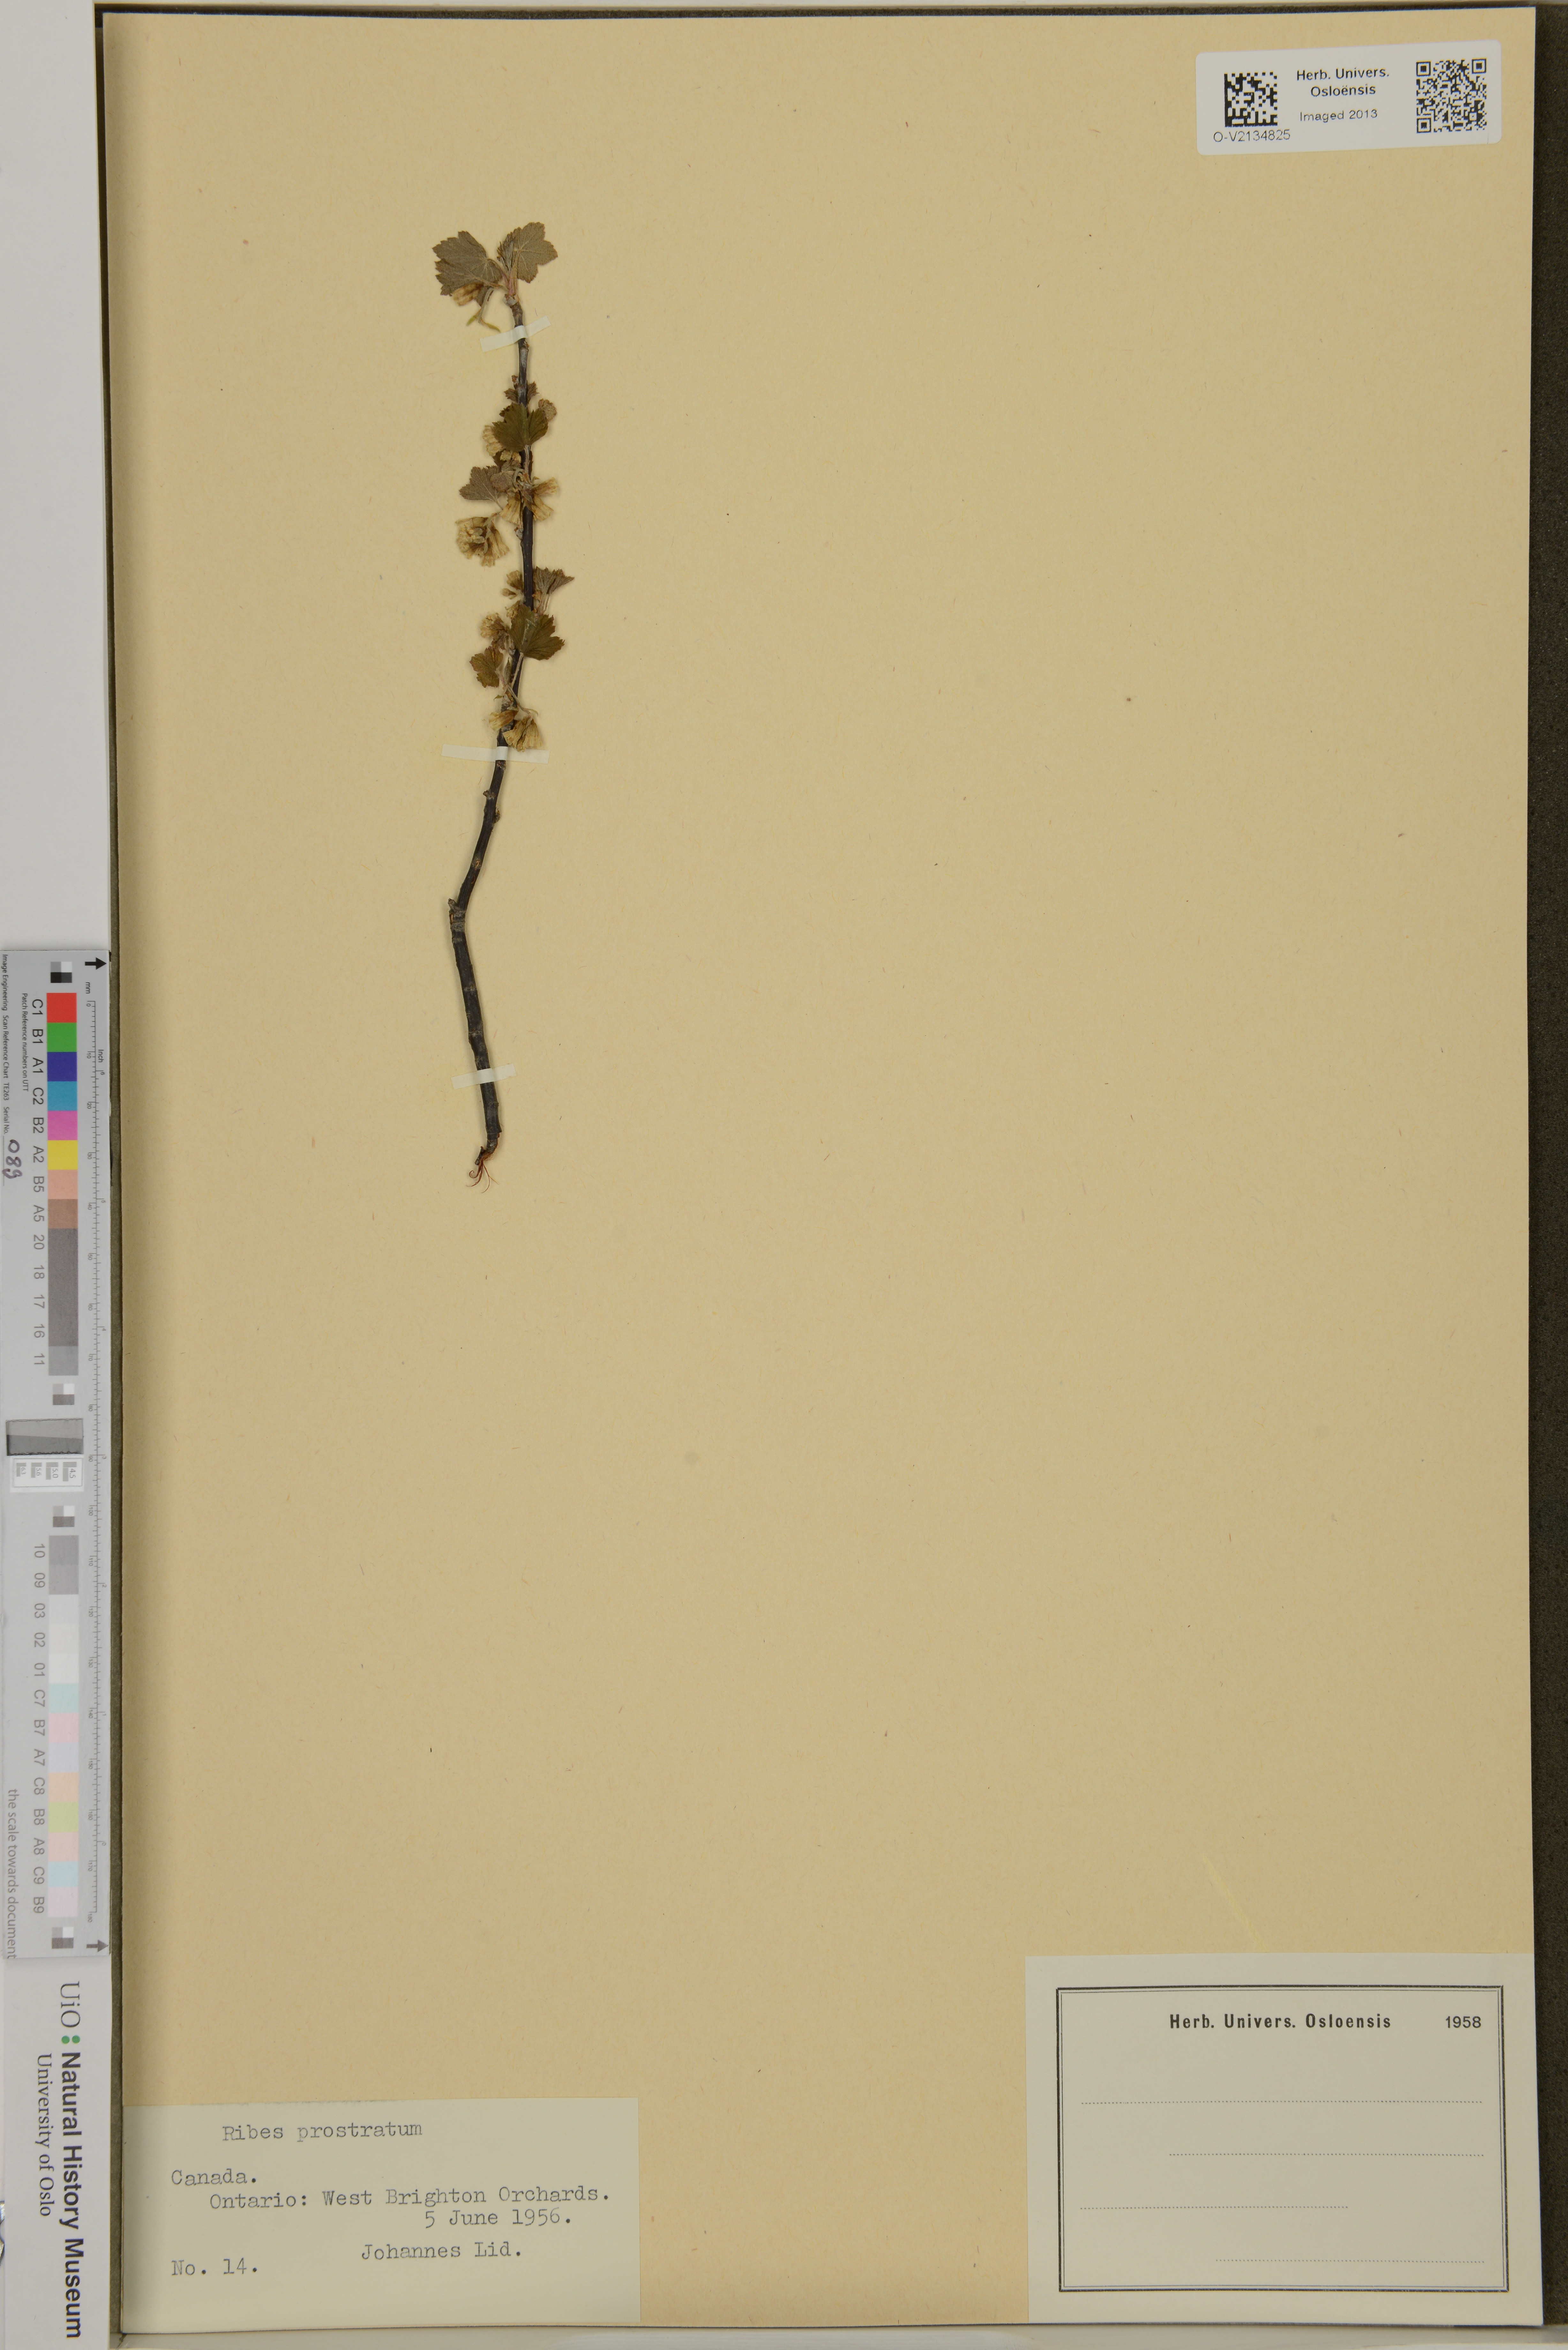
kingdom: Plantae
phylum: Tracheophyta
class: Magnoliopsida
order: Saxifragales
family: Grossulariaceae
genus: Ribes
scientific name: Ribes glandulosum
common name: Skunk currant
